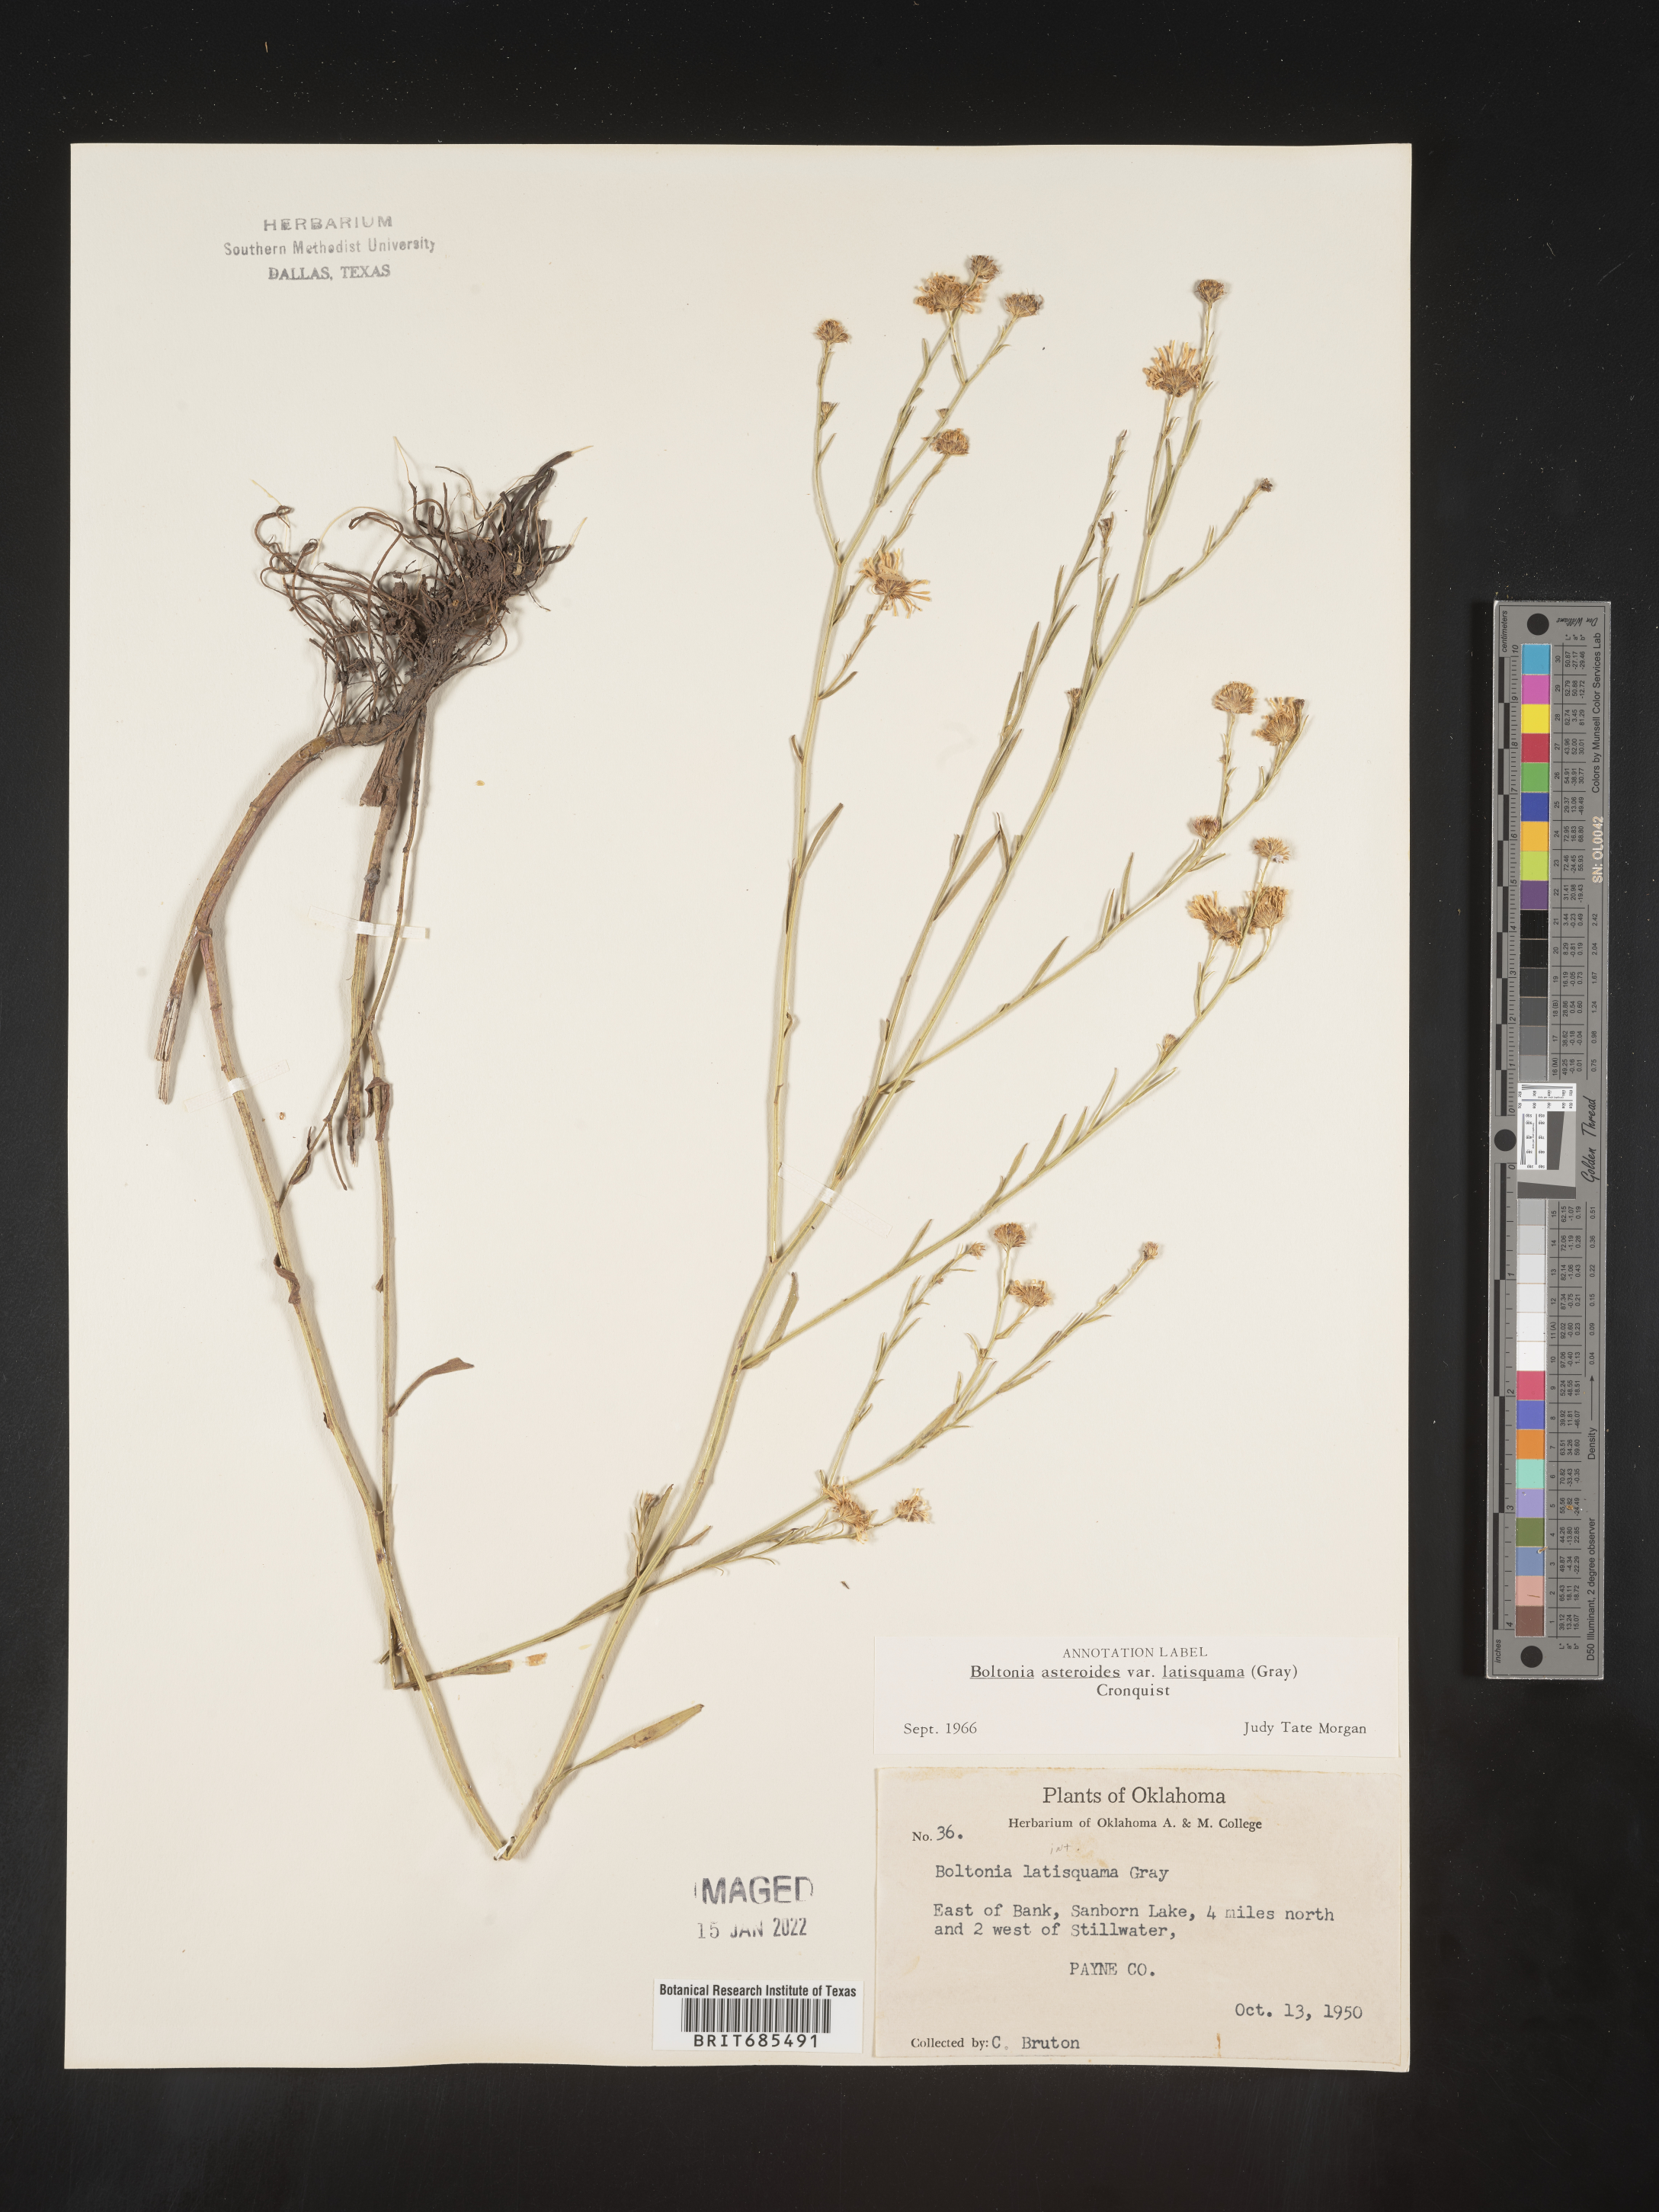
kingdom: Plantae
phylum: Tracheophyta
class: Magnoliopsida
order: Asterales
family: Asteraceae
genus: Boltonia
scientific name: Boltonia asteroides
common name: False chamomile
